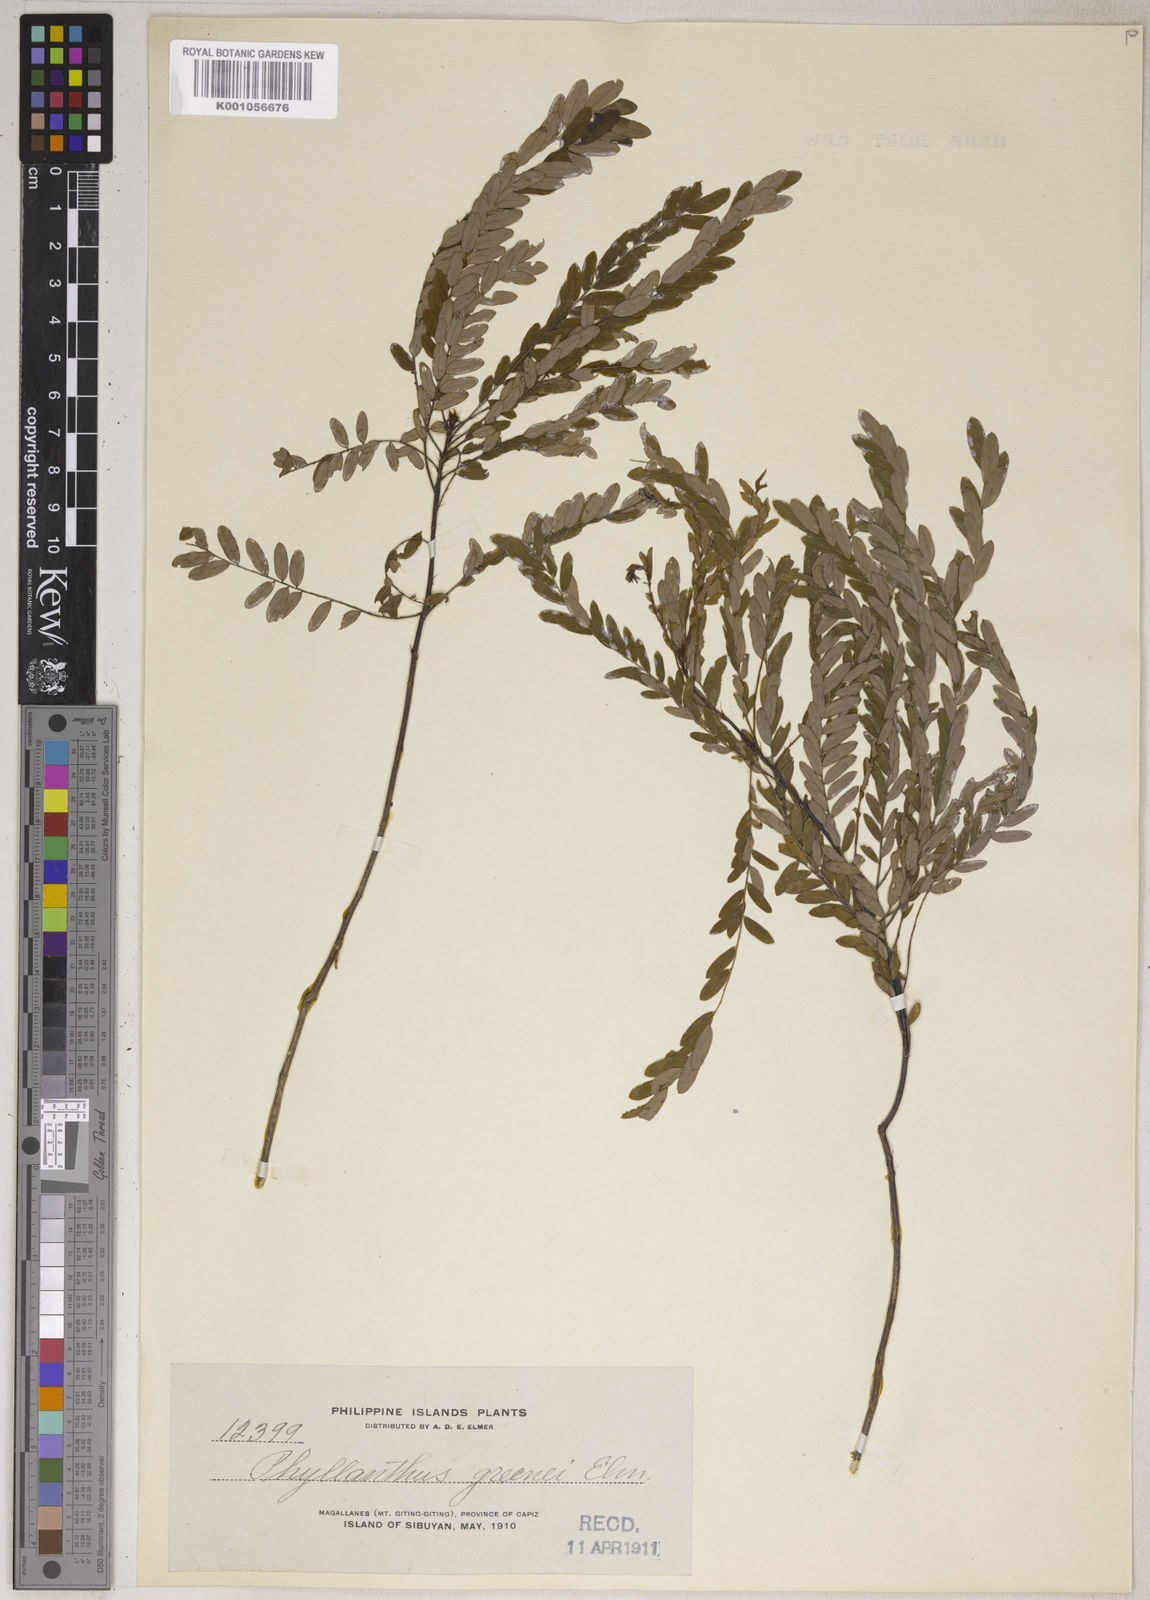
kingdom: Plantae
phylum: Tracheophyta
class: Magnoliopsida
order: Malpighiales
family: Phyllanthaceae
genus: Phyllanthus
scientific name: Phyllanthus greenei
